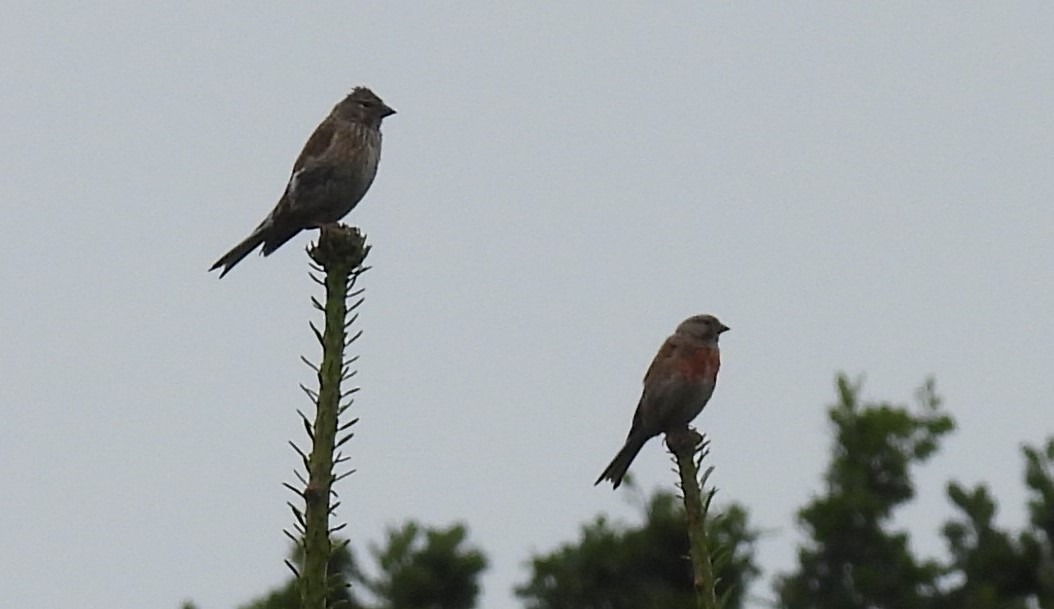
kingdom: Animalia
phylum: Chordata
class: Aves
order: Passeriformes
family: Fringillidae
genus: Linaria
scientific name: Linaria cannabina
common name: Tornirisk
